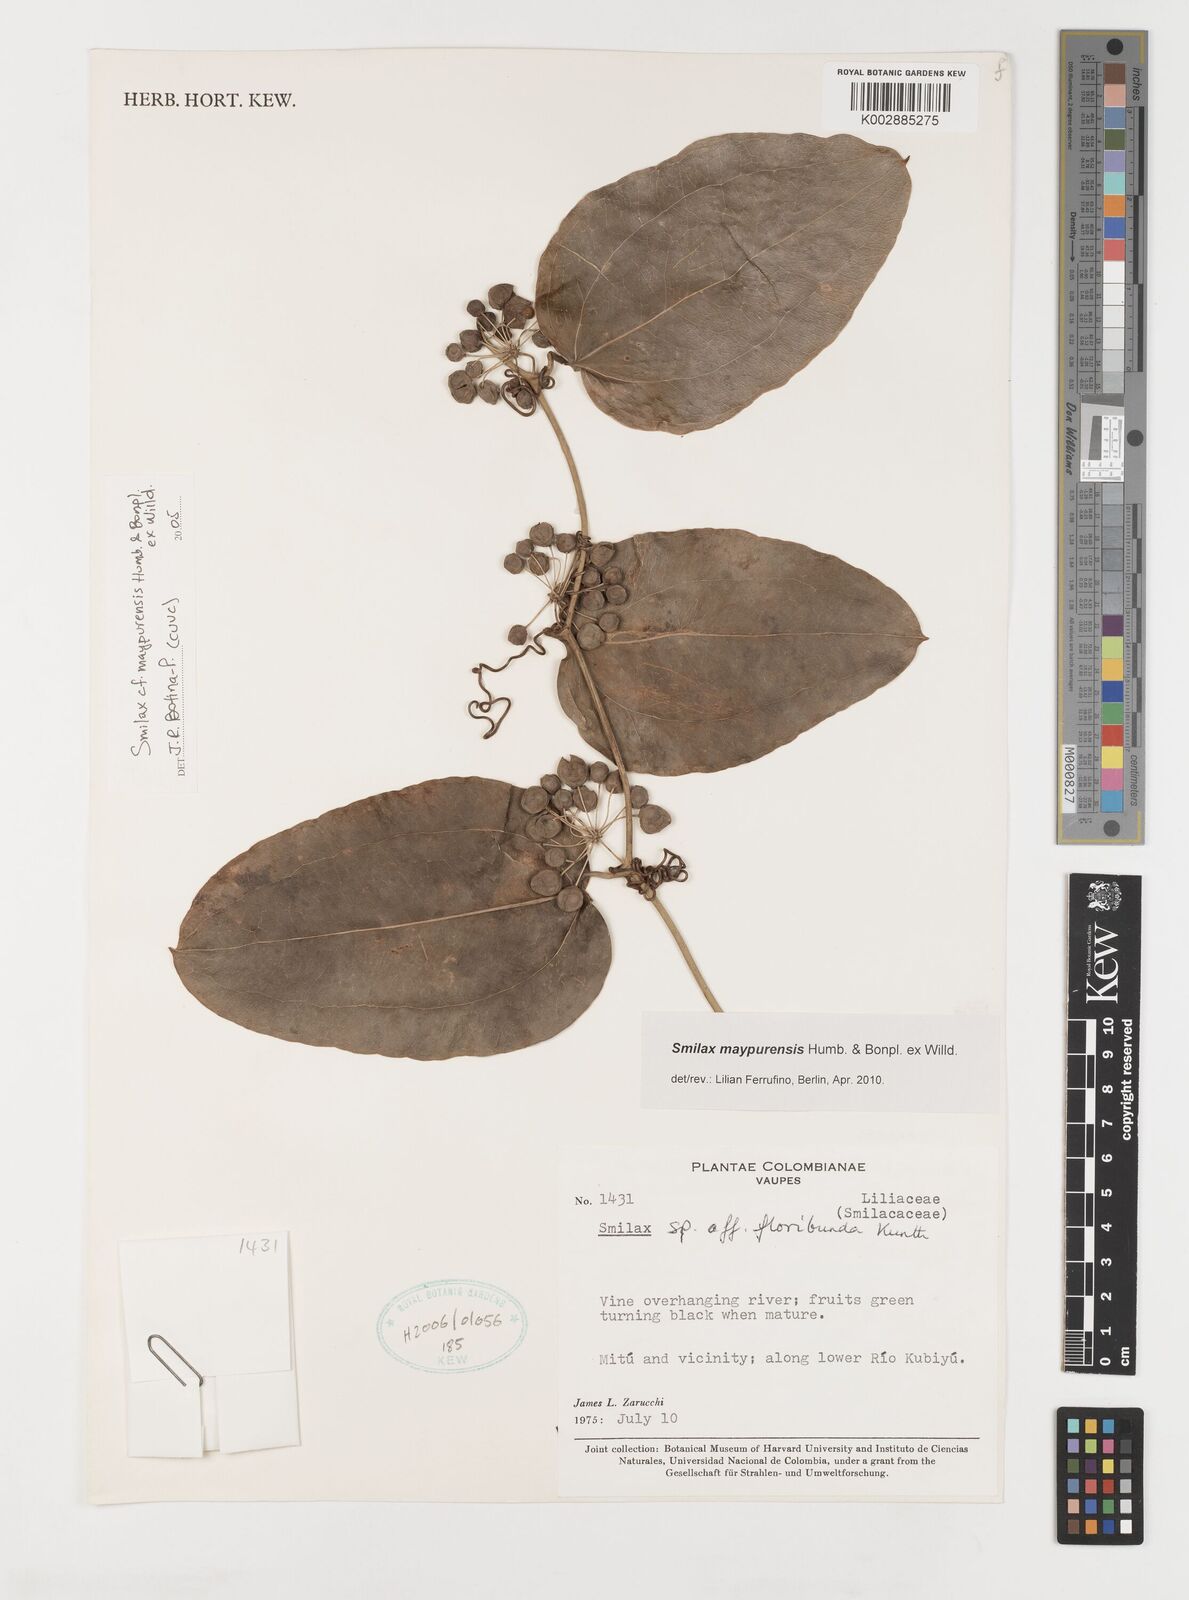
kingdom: Plantae
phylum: Tracheophyta
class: Liliopsida
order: Liliales
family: Smilacaceae
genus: Smilax
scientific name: Smilax maypurensis
